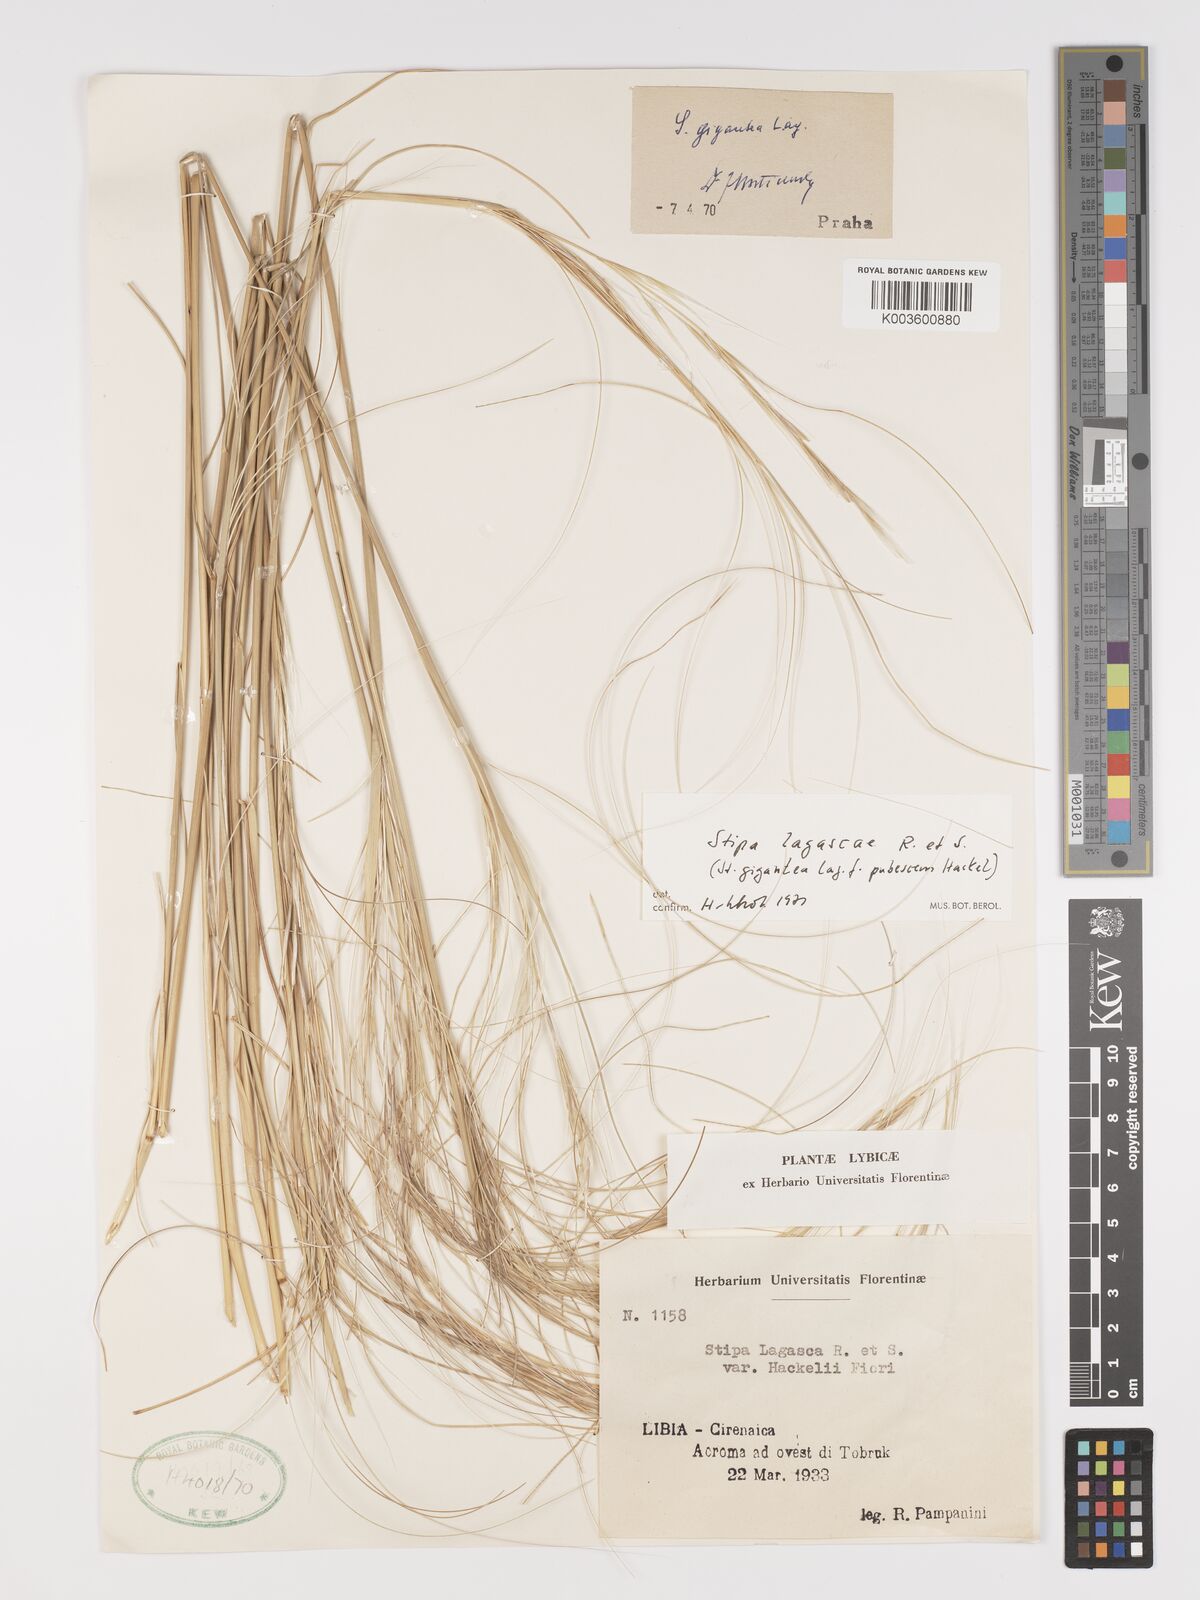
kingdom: Plantae
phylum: Tracheophyta
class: Liliopsida
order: Poales
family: Poaceae
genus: Stipa
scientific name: Stipa lagascae
